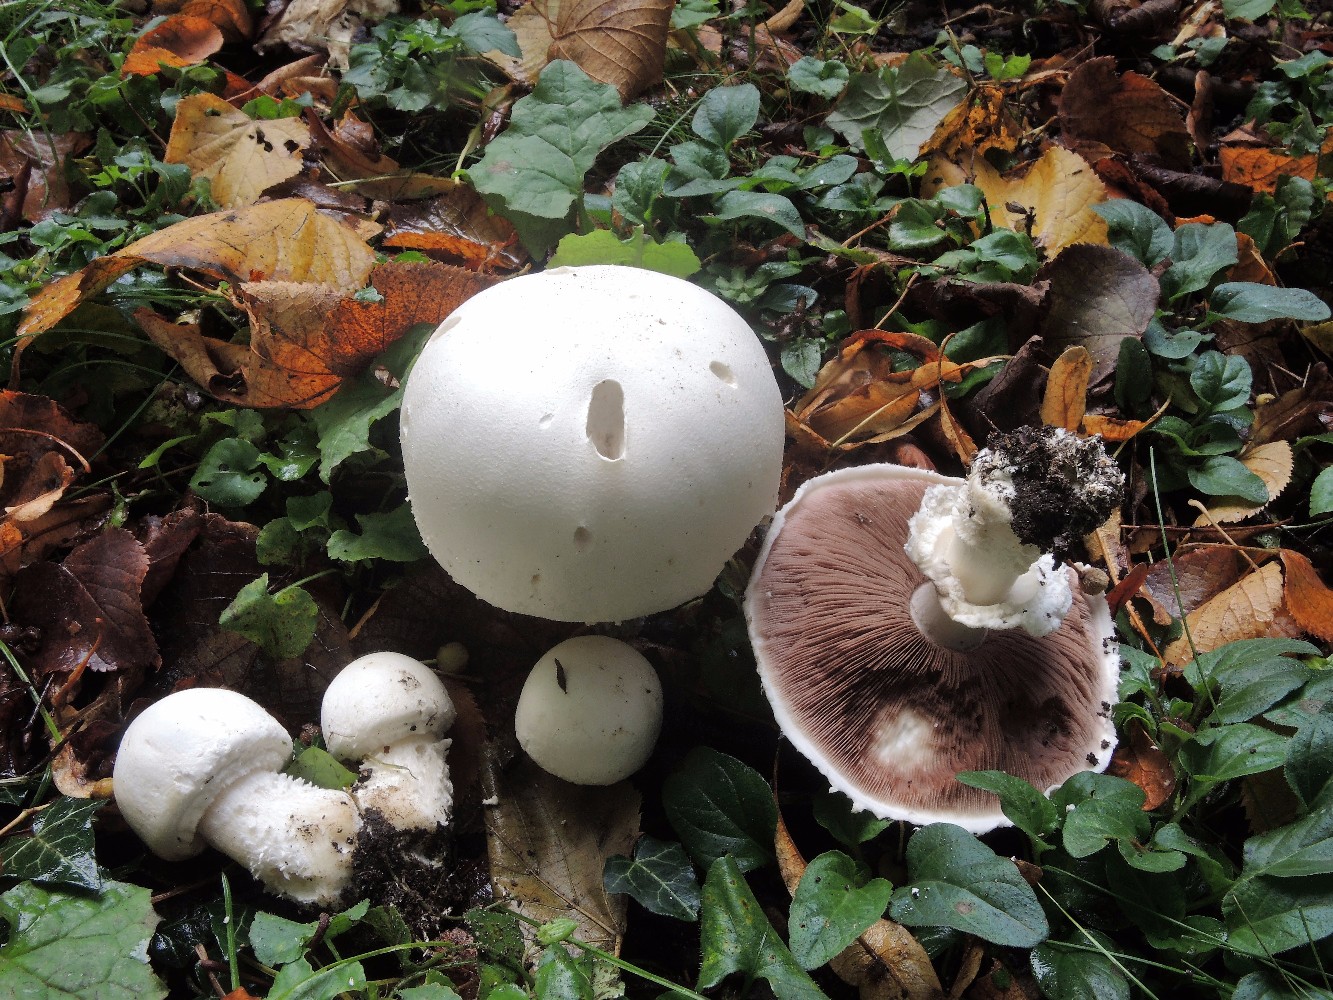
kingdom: Fungi
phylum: Basidiomycota
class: Agaricomycetes
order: Agaricales
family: Agaricaceae
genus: Agaricus
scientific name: Agaricus arvensis
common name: ager-champignon
